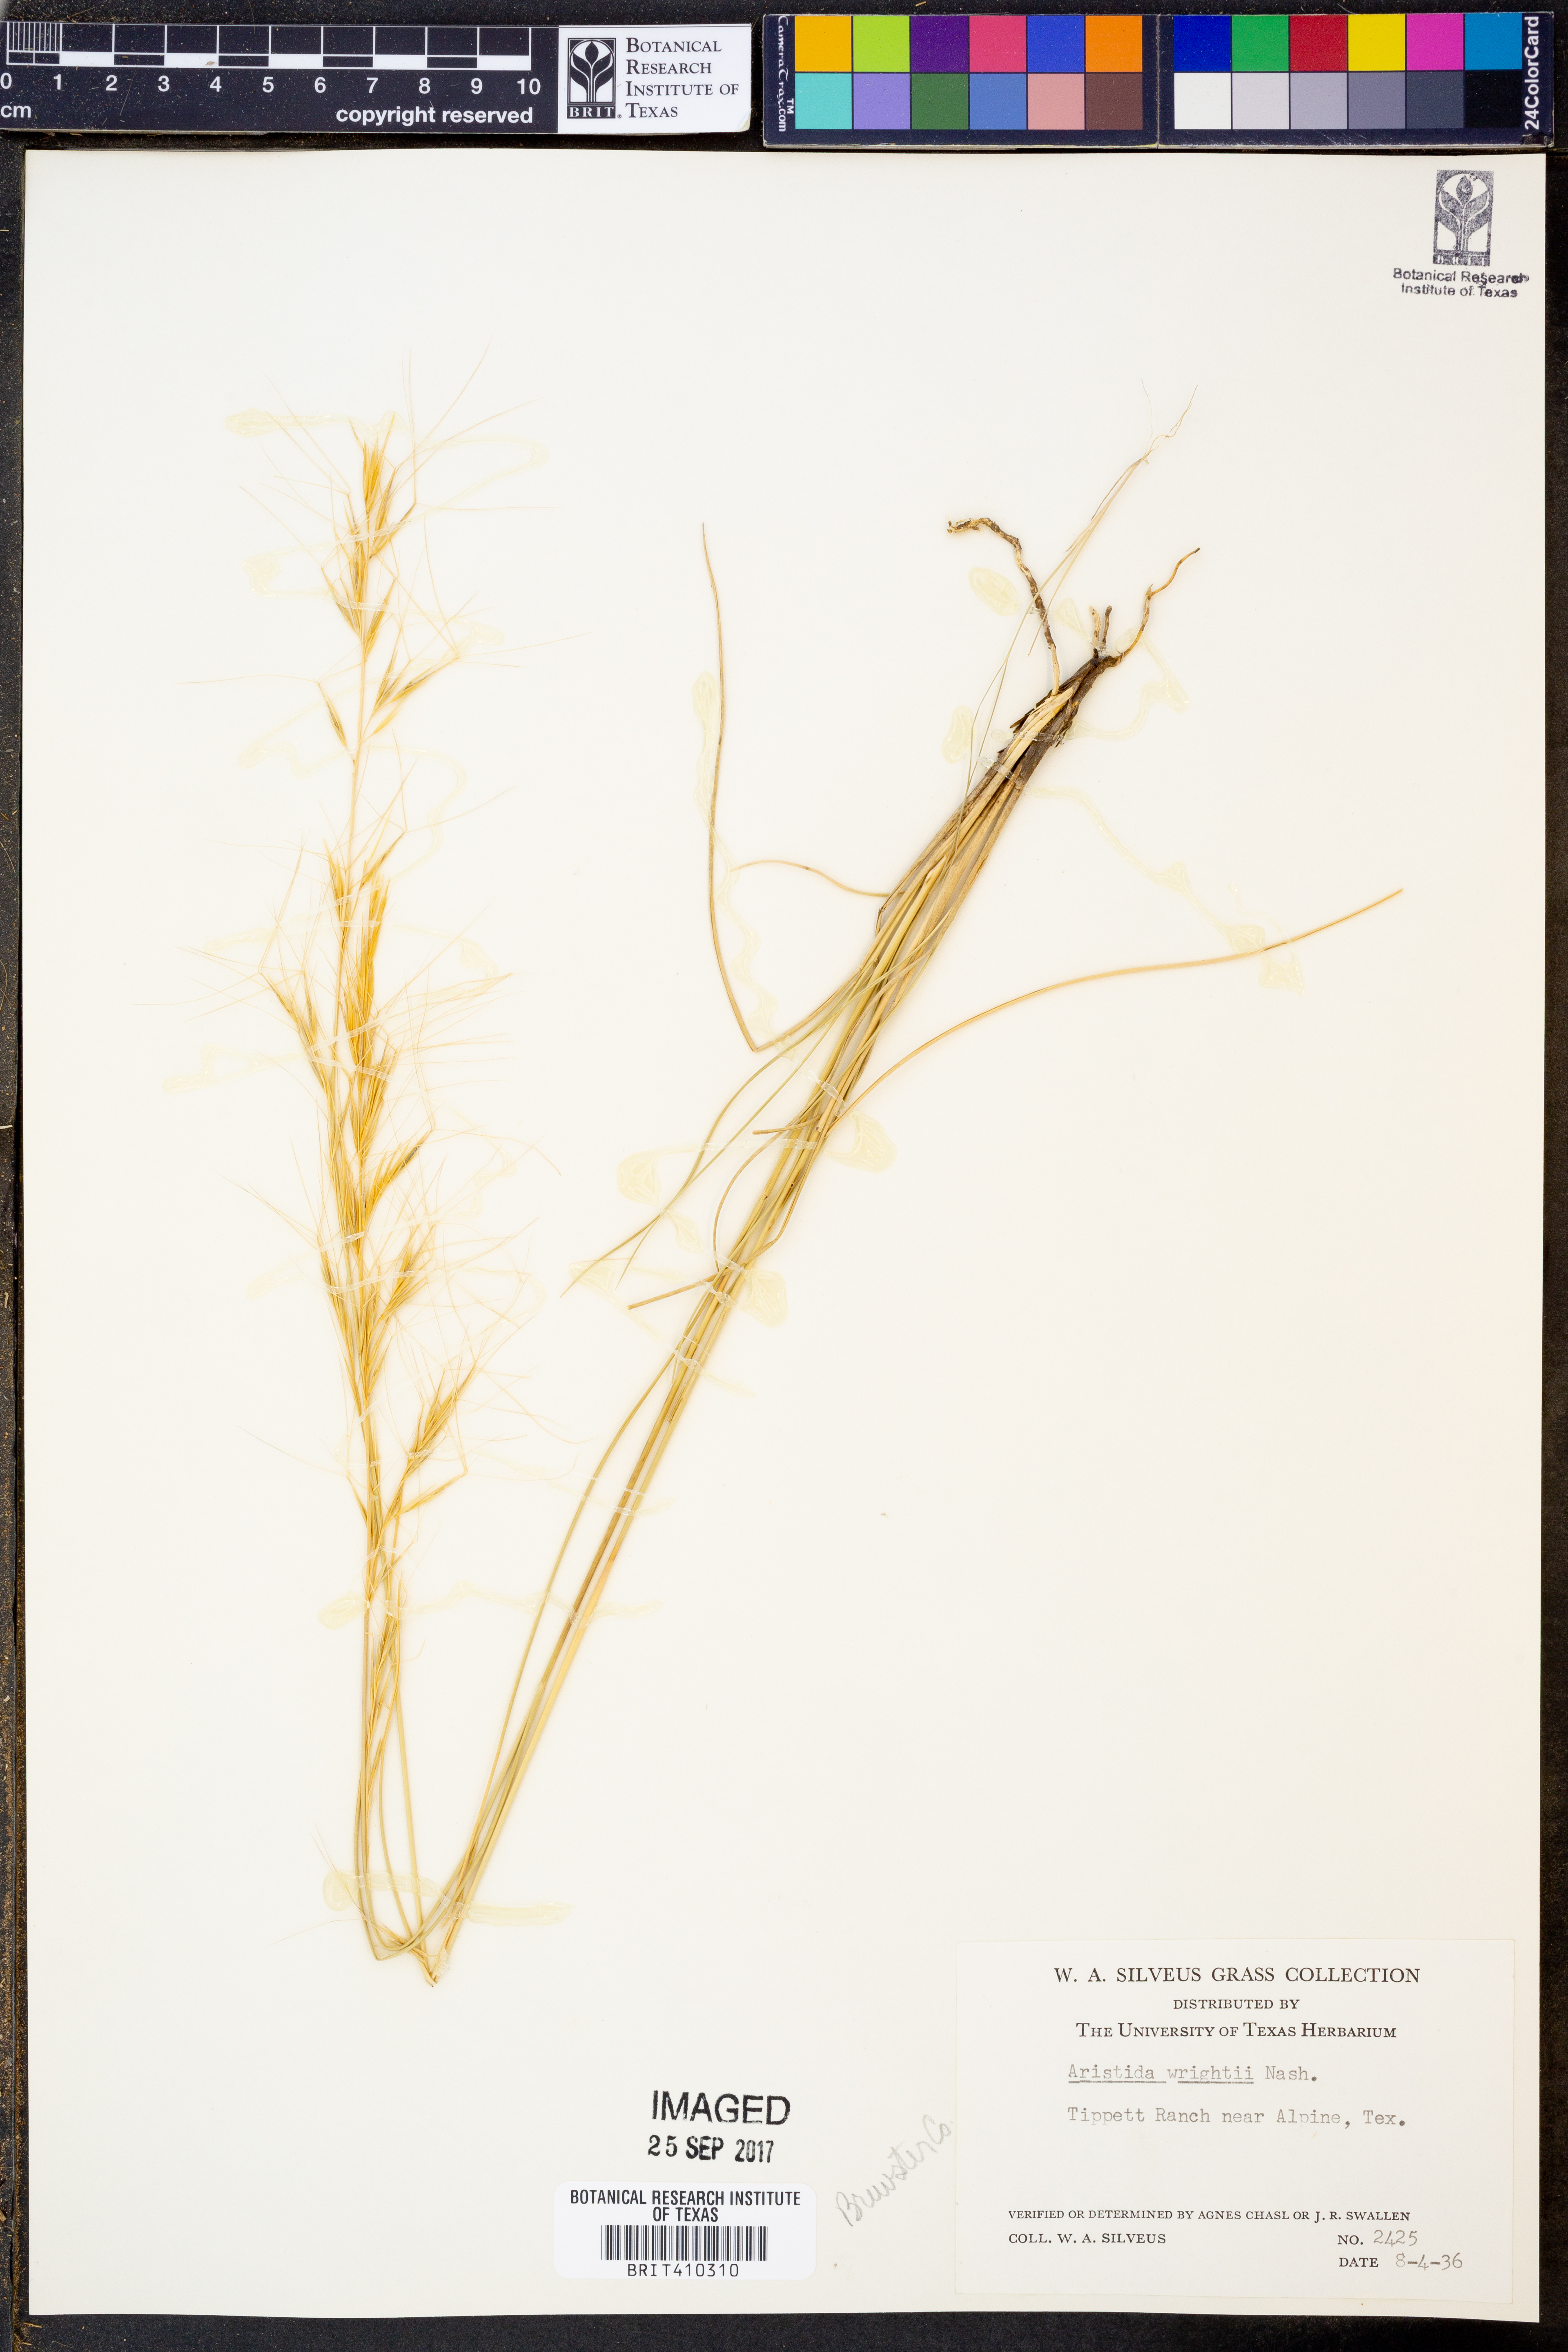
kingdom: Plantae
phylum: Tracheophyta
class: Liliopsida
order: Poales
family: Poaceae
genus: Aristida
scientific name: Aristida wrightii
